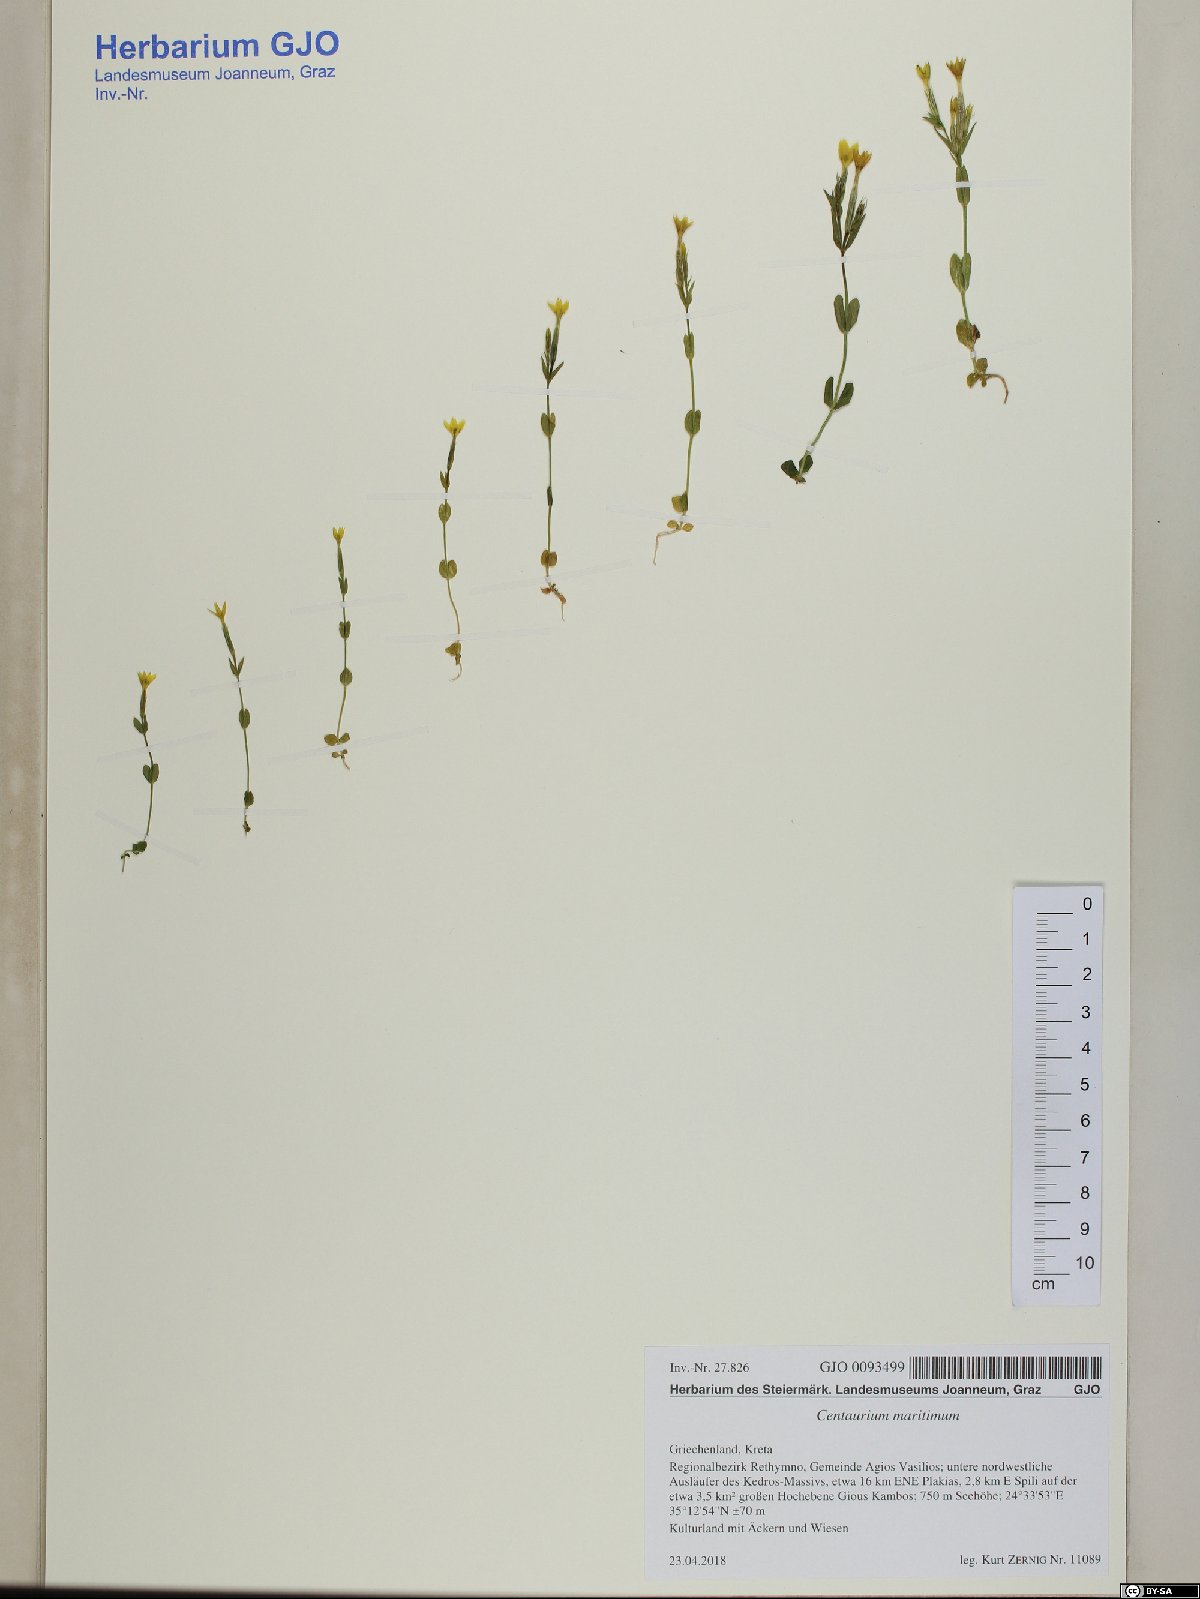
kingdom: Plantae
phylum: Tracheophyta
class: Magnoliopsida
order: Gentianales
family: Gentianaceae
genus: Centaurium
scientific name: Centaurium maritimum
